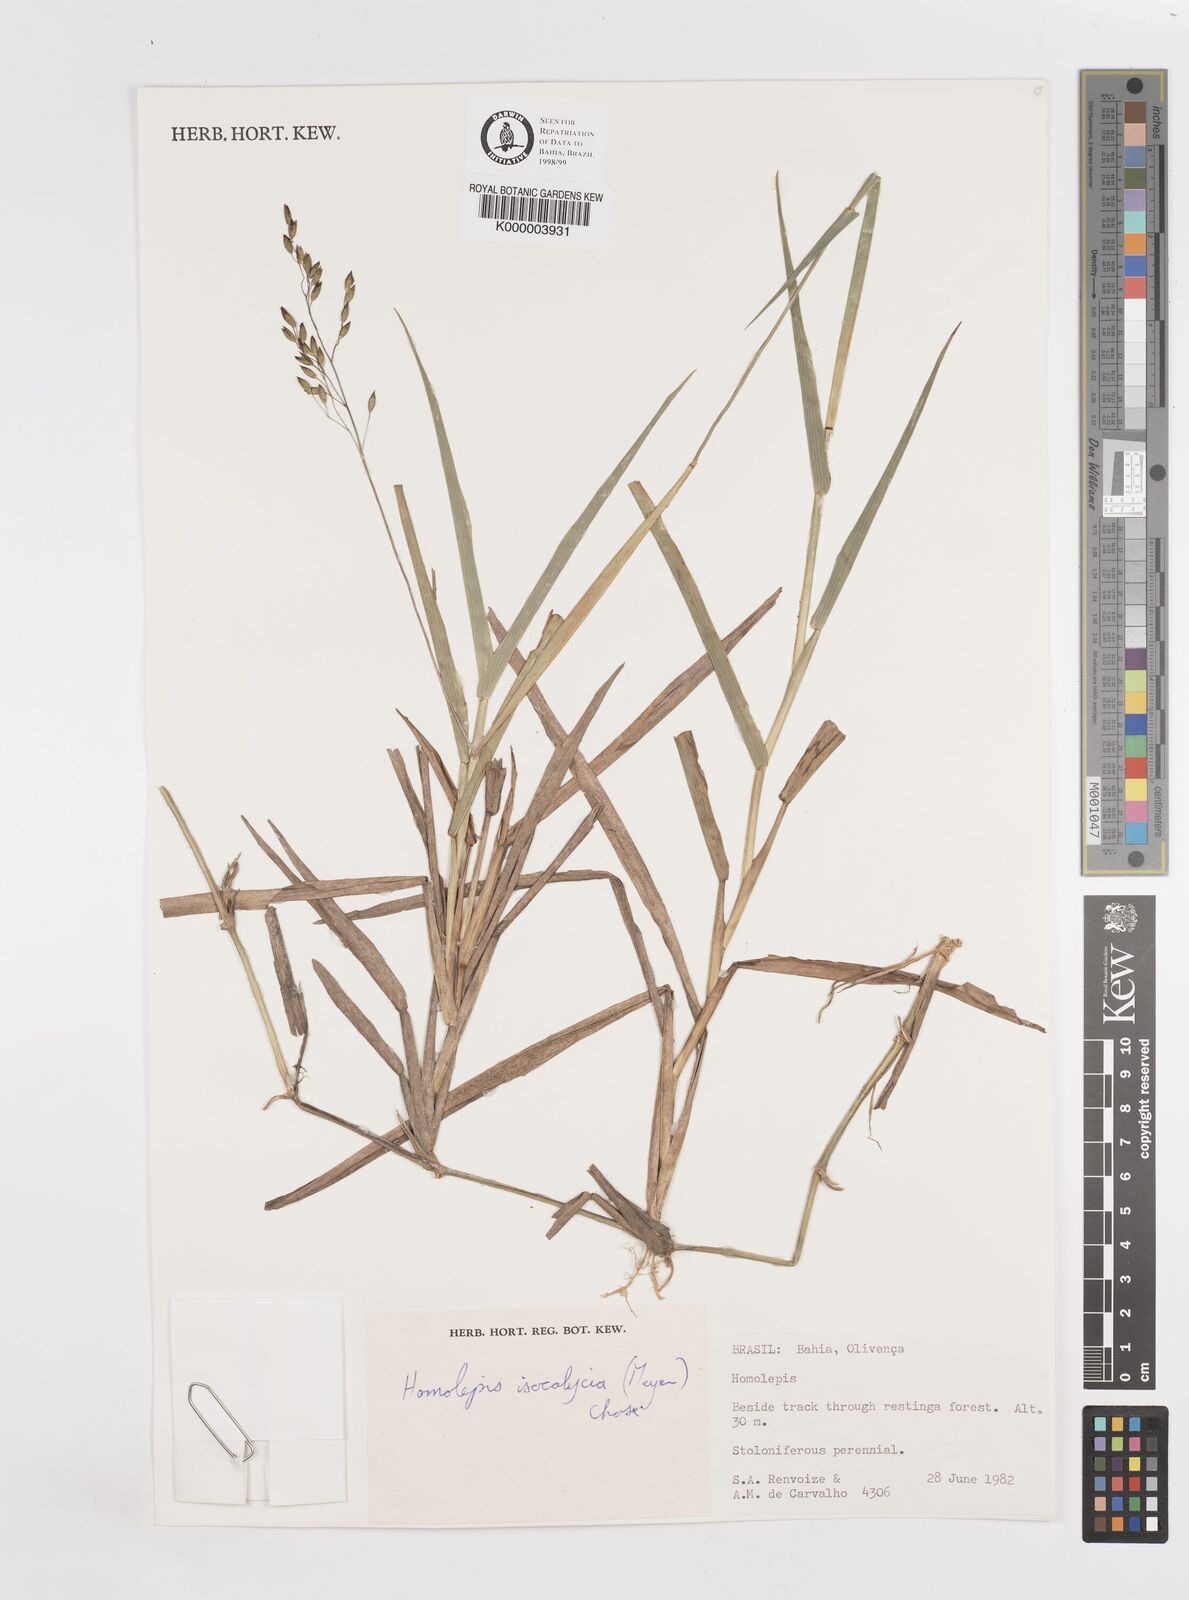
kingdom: Plantae
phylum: Tracheophyta
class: Liliopsida
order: Poales
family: Poaceae
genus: Homolepis
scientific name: Homolepis
